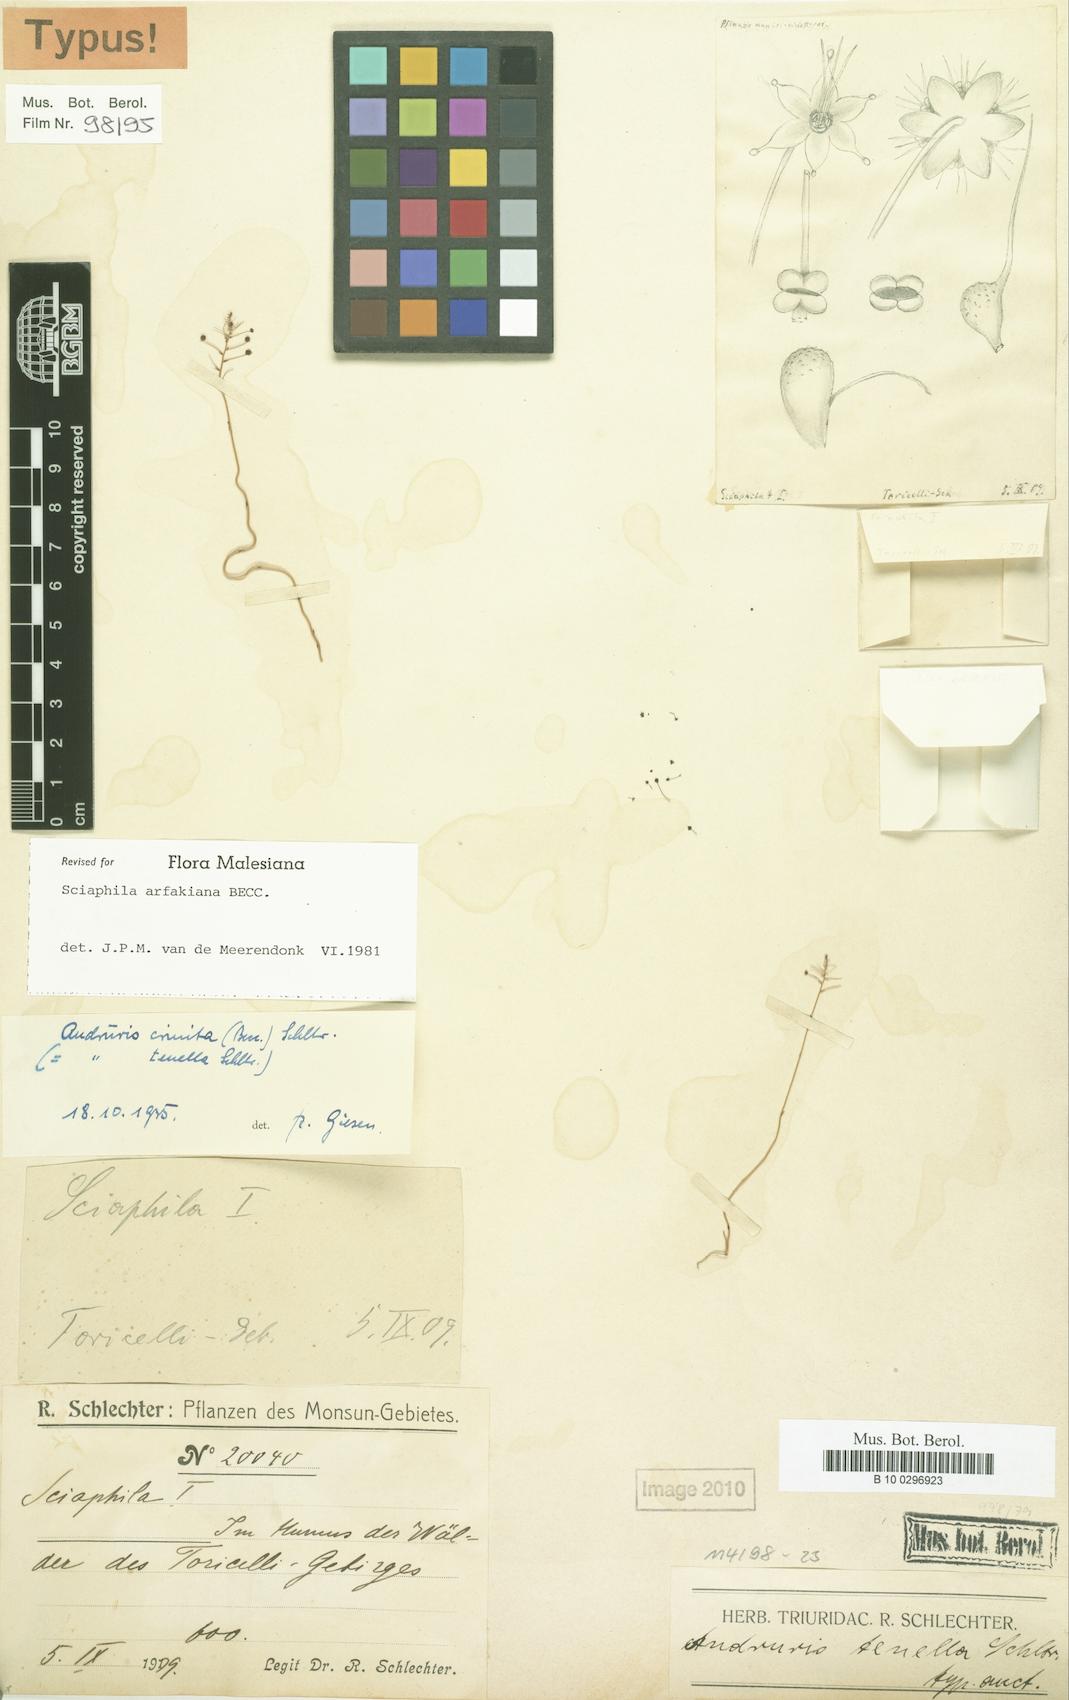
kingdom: Plantae
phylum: Tracheophyta
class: Liliopsida
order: Pandanales
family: Triuridaceae
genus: Sciaphila
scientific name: Sciaphila arfakiana
